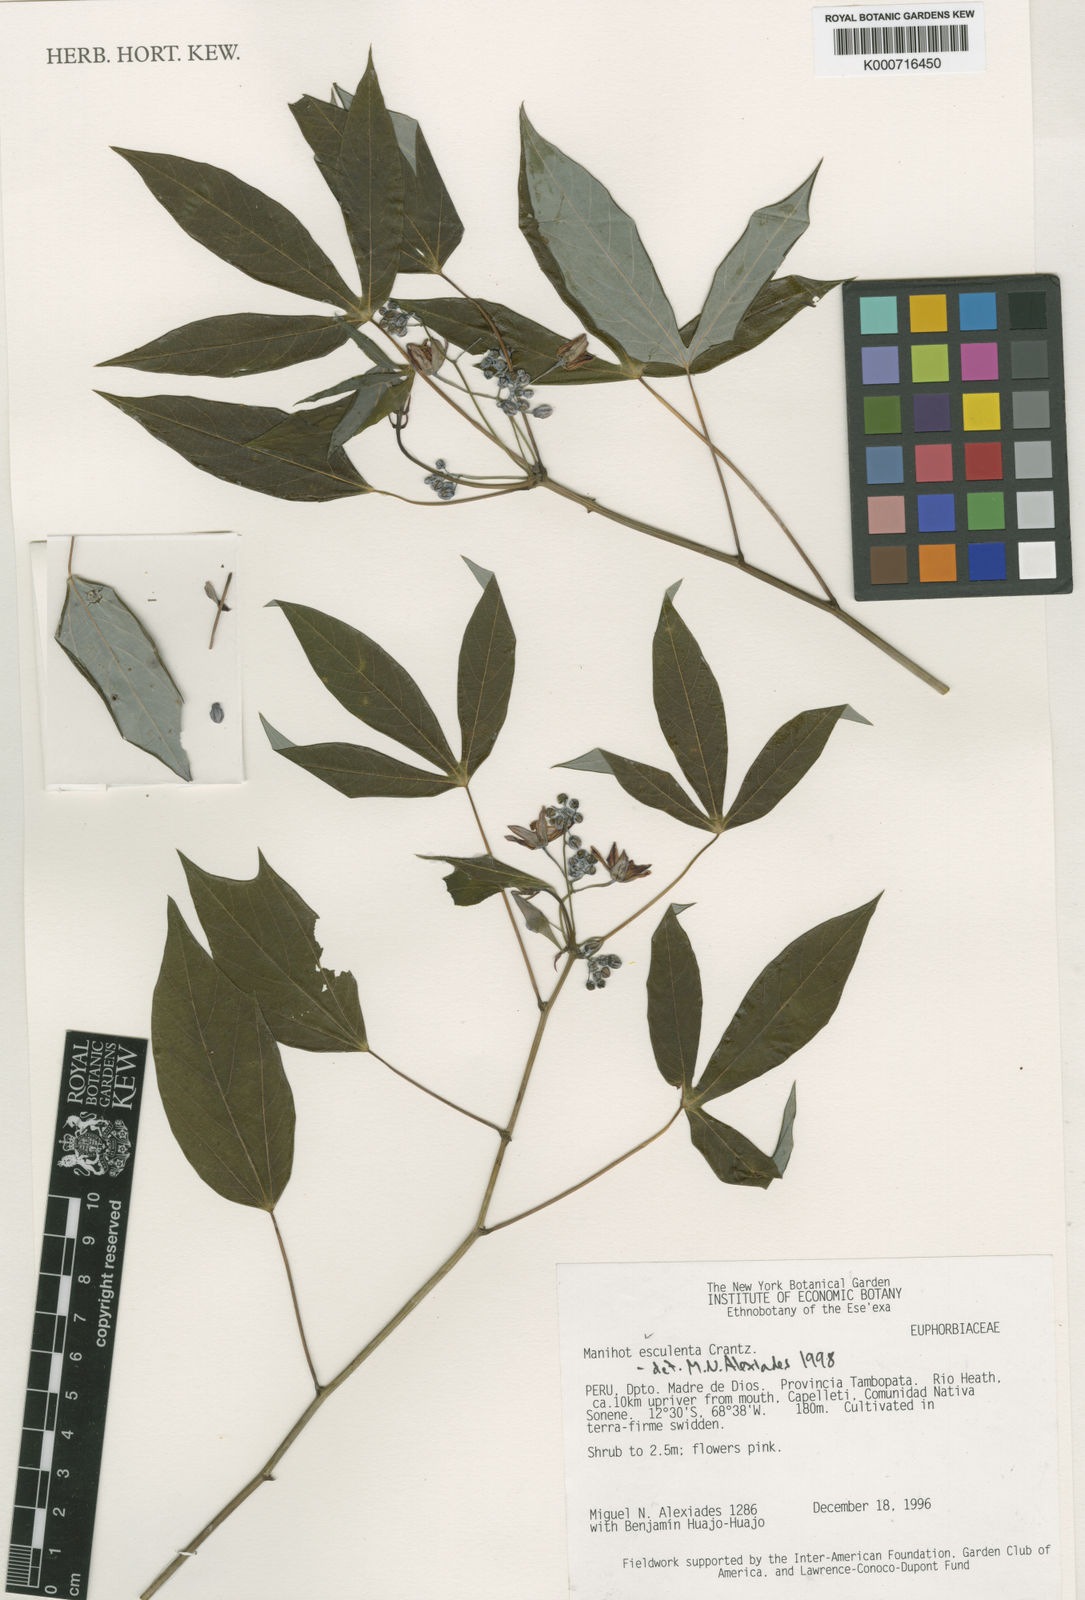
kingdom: Plantae
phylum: Tracheophyta
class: Magnoliopsida
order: Malpighiales
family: Euphorbiaceae
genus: Manihot
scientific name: Manihot esculenta
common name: Cassava
